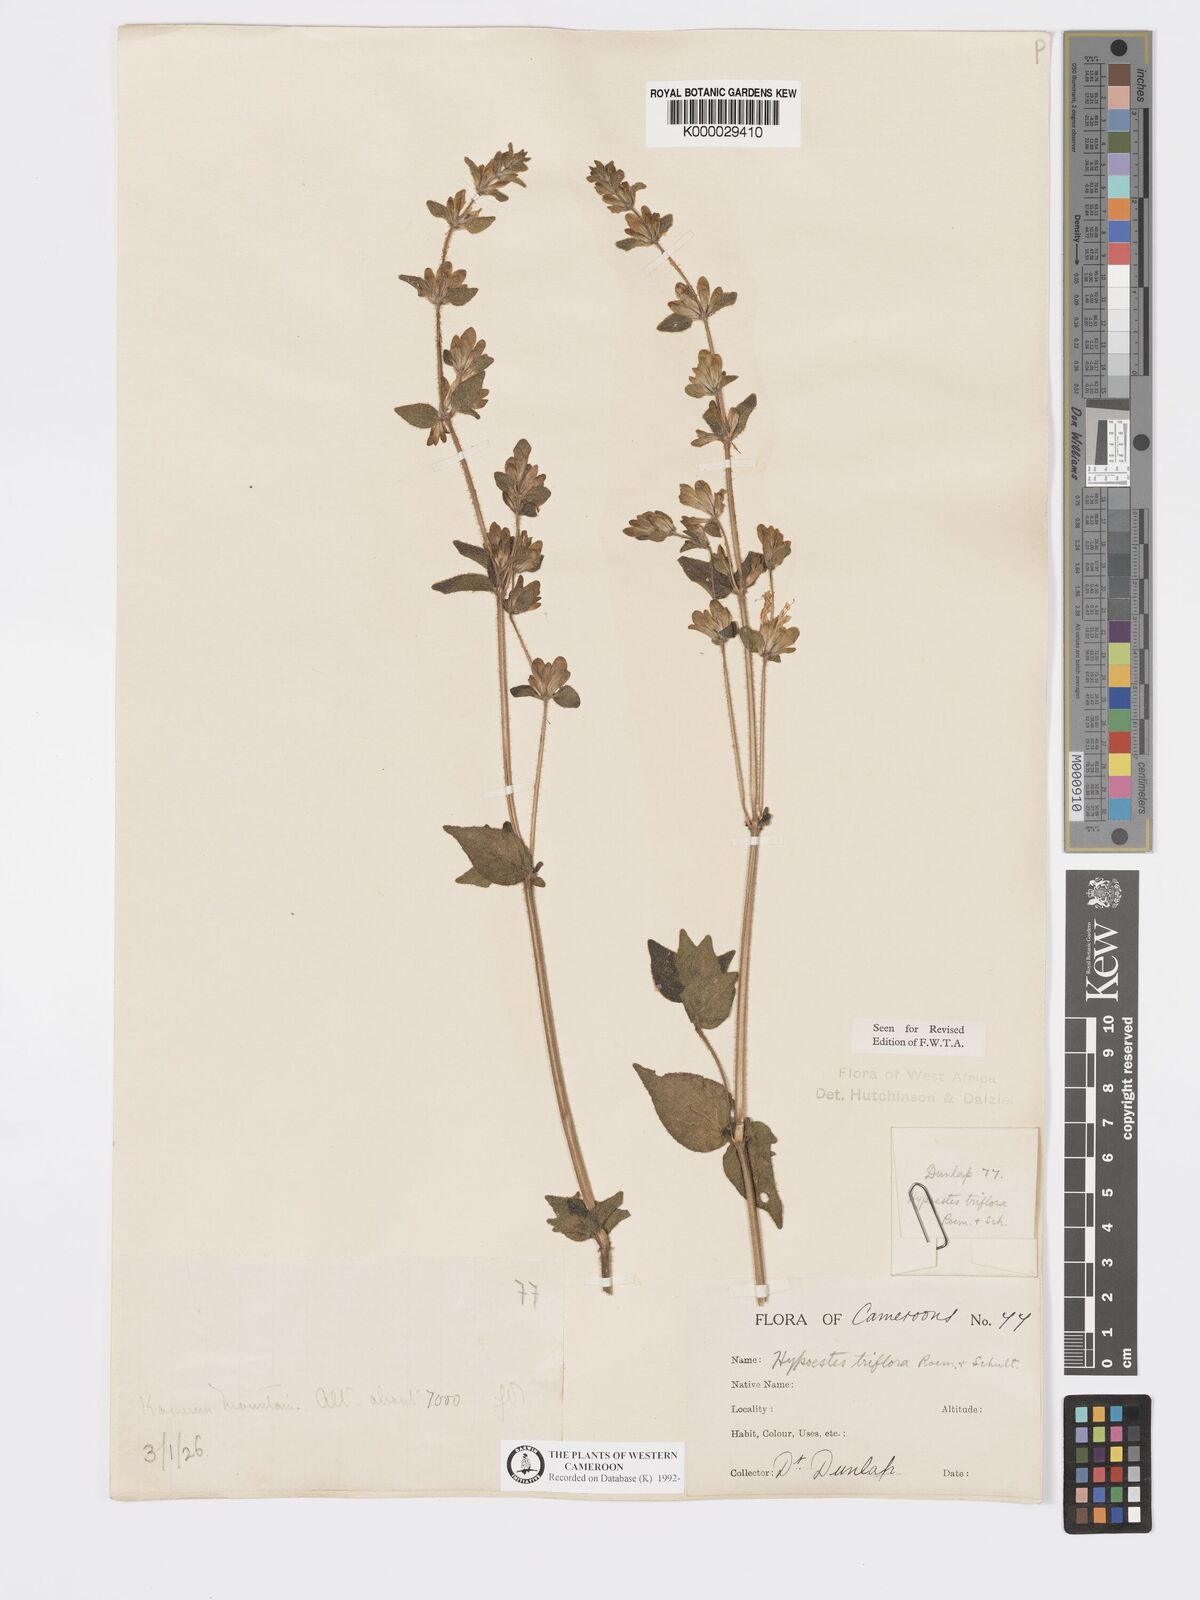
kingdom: Plantae
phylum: Tracheophyta
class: Magnoliopsida
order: Lamiales
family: Acanthaceae
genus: Hypoestes
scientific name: Hypoestes triflora
